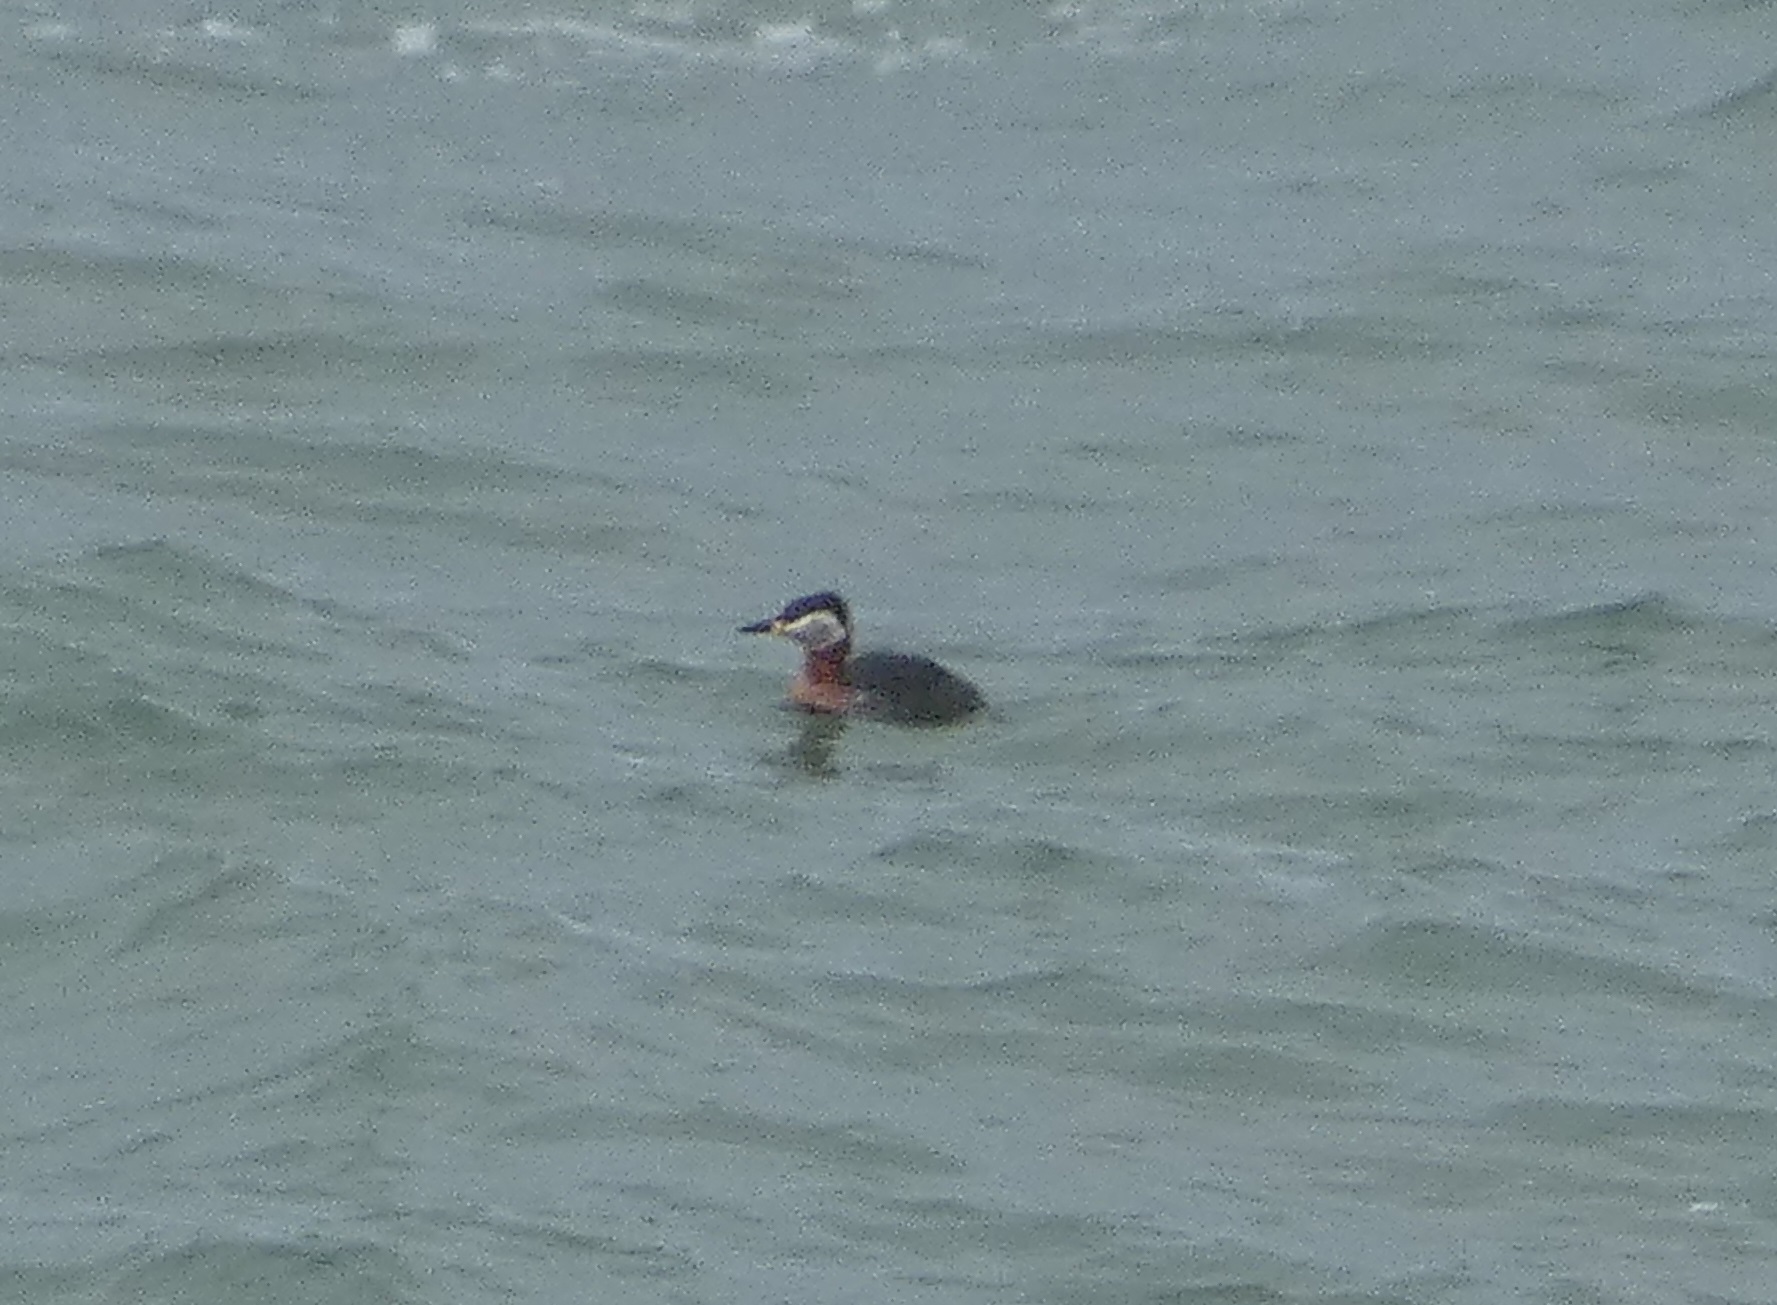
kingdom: Animalia
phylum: Chordata
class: Aves
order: Podicipediformes
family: Podicipedidae
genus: Podiceps
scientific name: Podiceps grisegena
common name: Gråstrubet lappedykker
